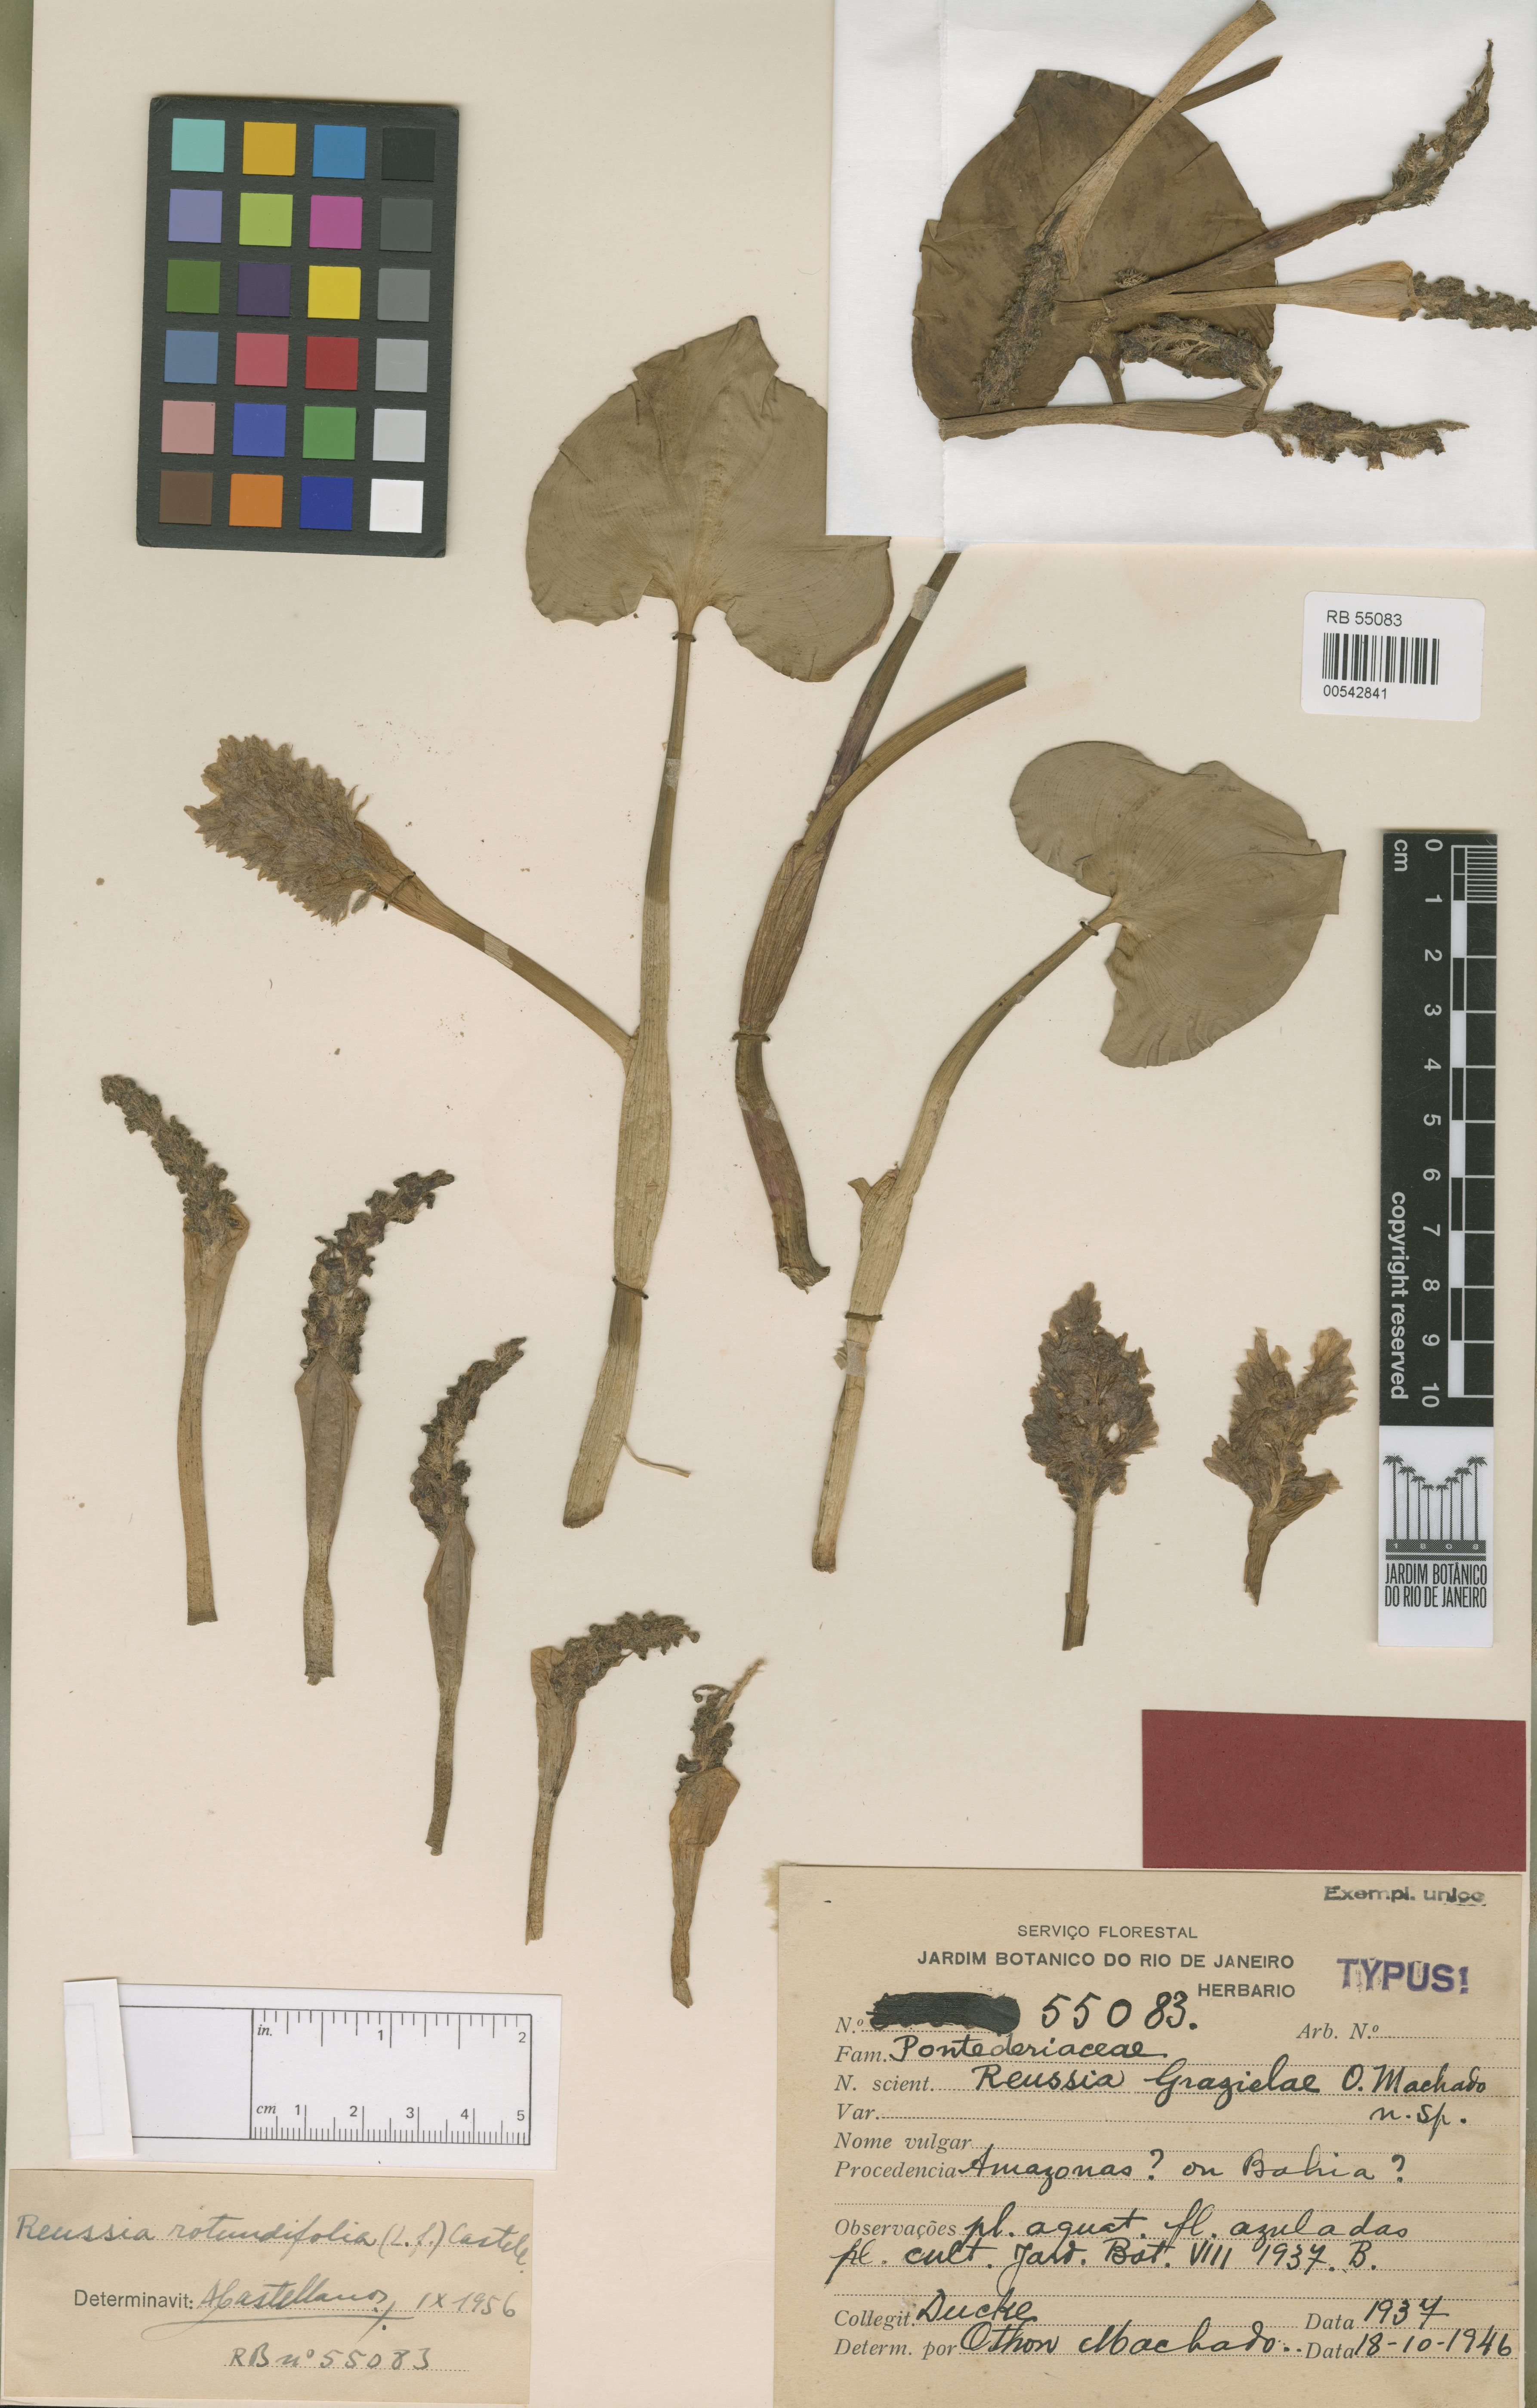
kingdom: Plantae
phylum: Tracheophyta
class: Liliopsida
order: Commelinales
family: Pontederiaceae
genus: Pontederia
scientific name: Pontederia rotundifolia
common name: Tropical pickerel-weed
